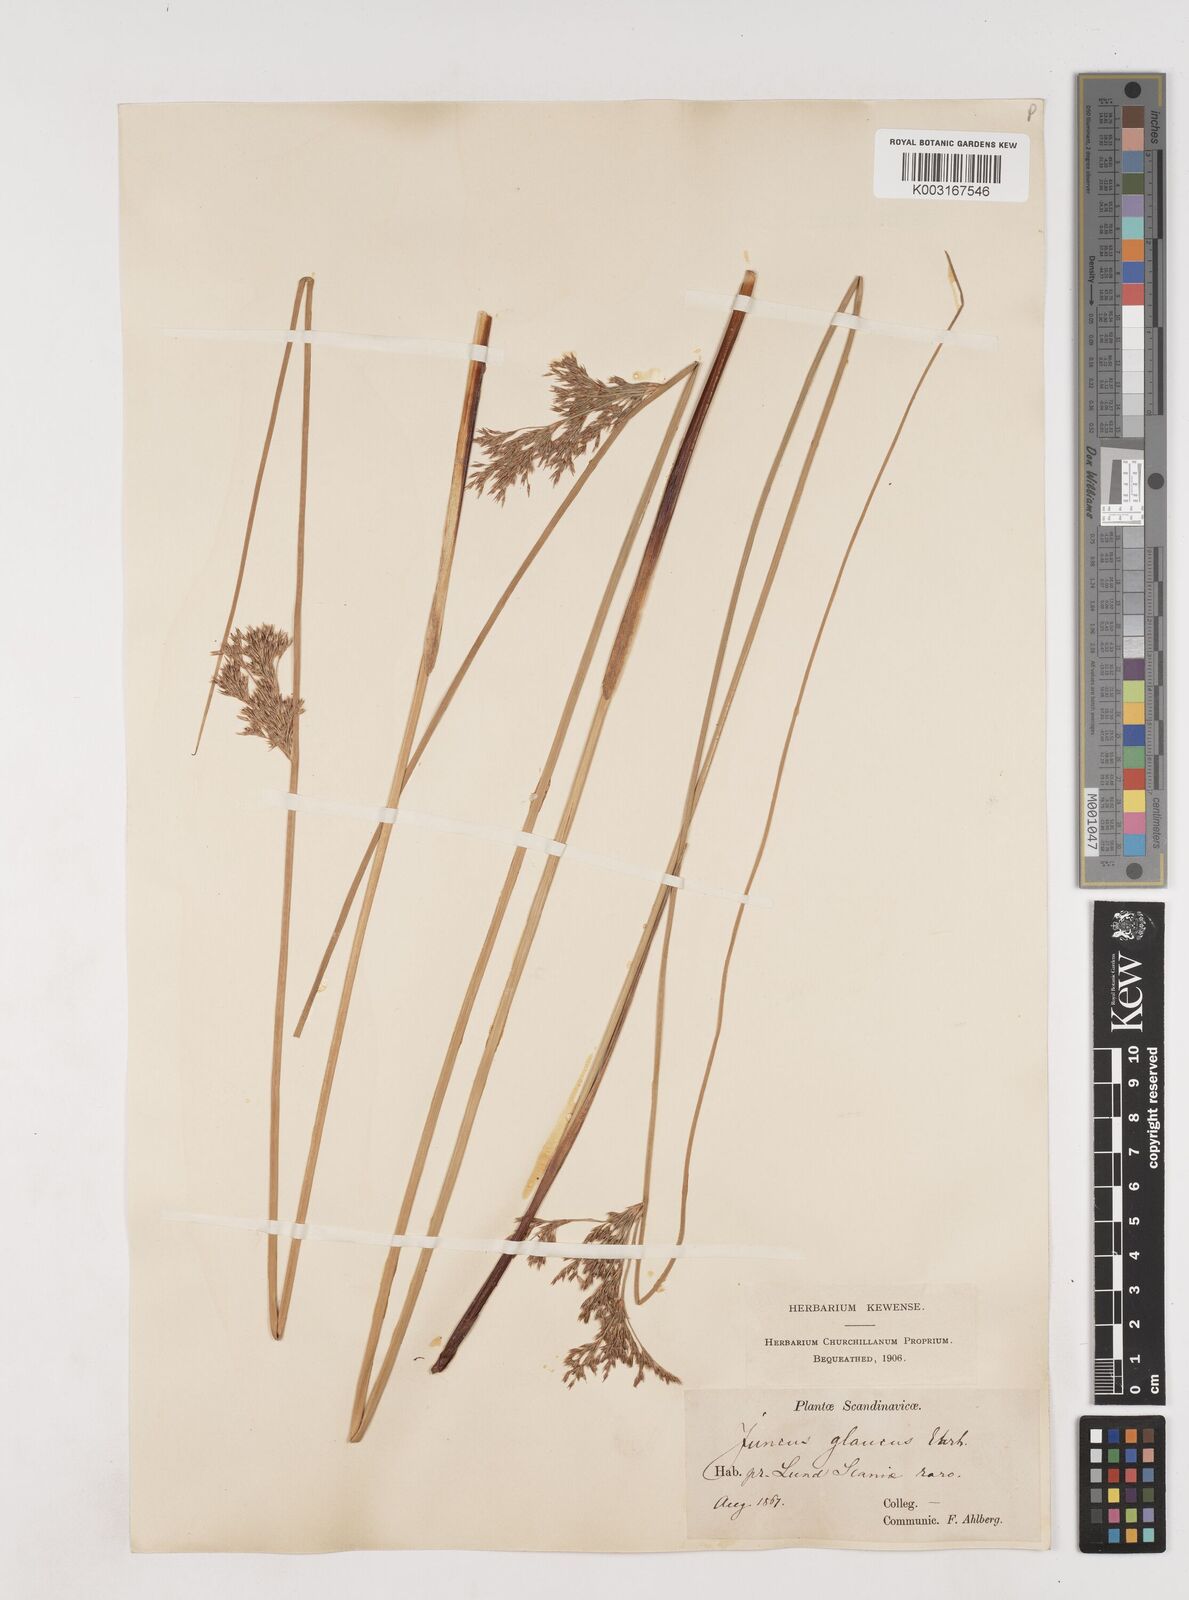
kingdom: Plantae
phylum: Tracheophyta
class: Liliopsida
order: Poales
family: Juncaceae
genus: Juncus
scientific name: Juncus inflexus
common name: Hard rush
